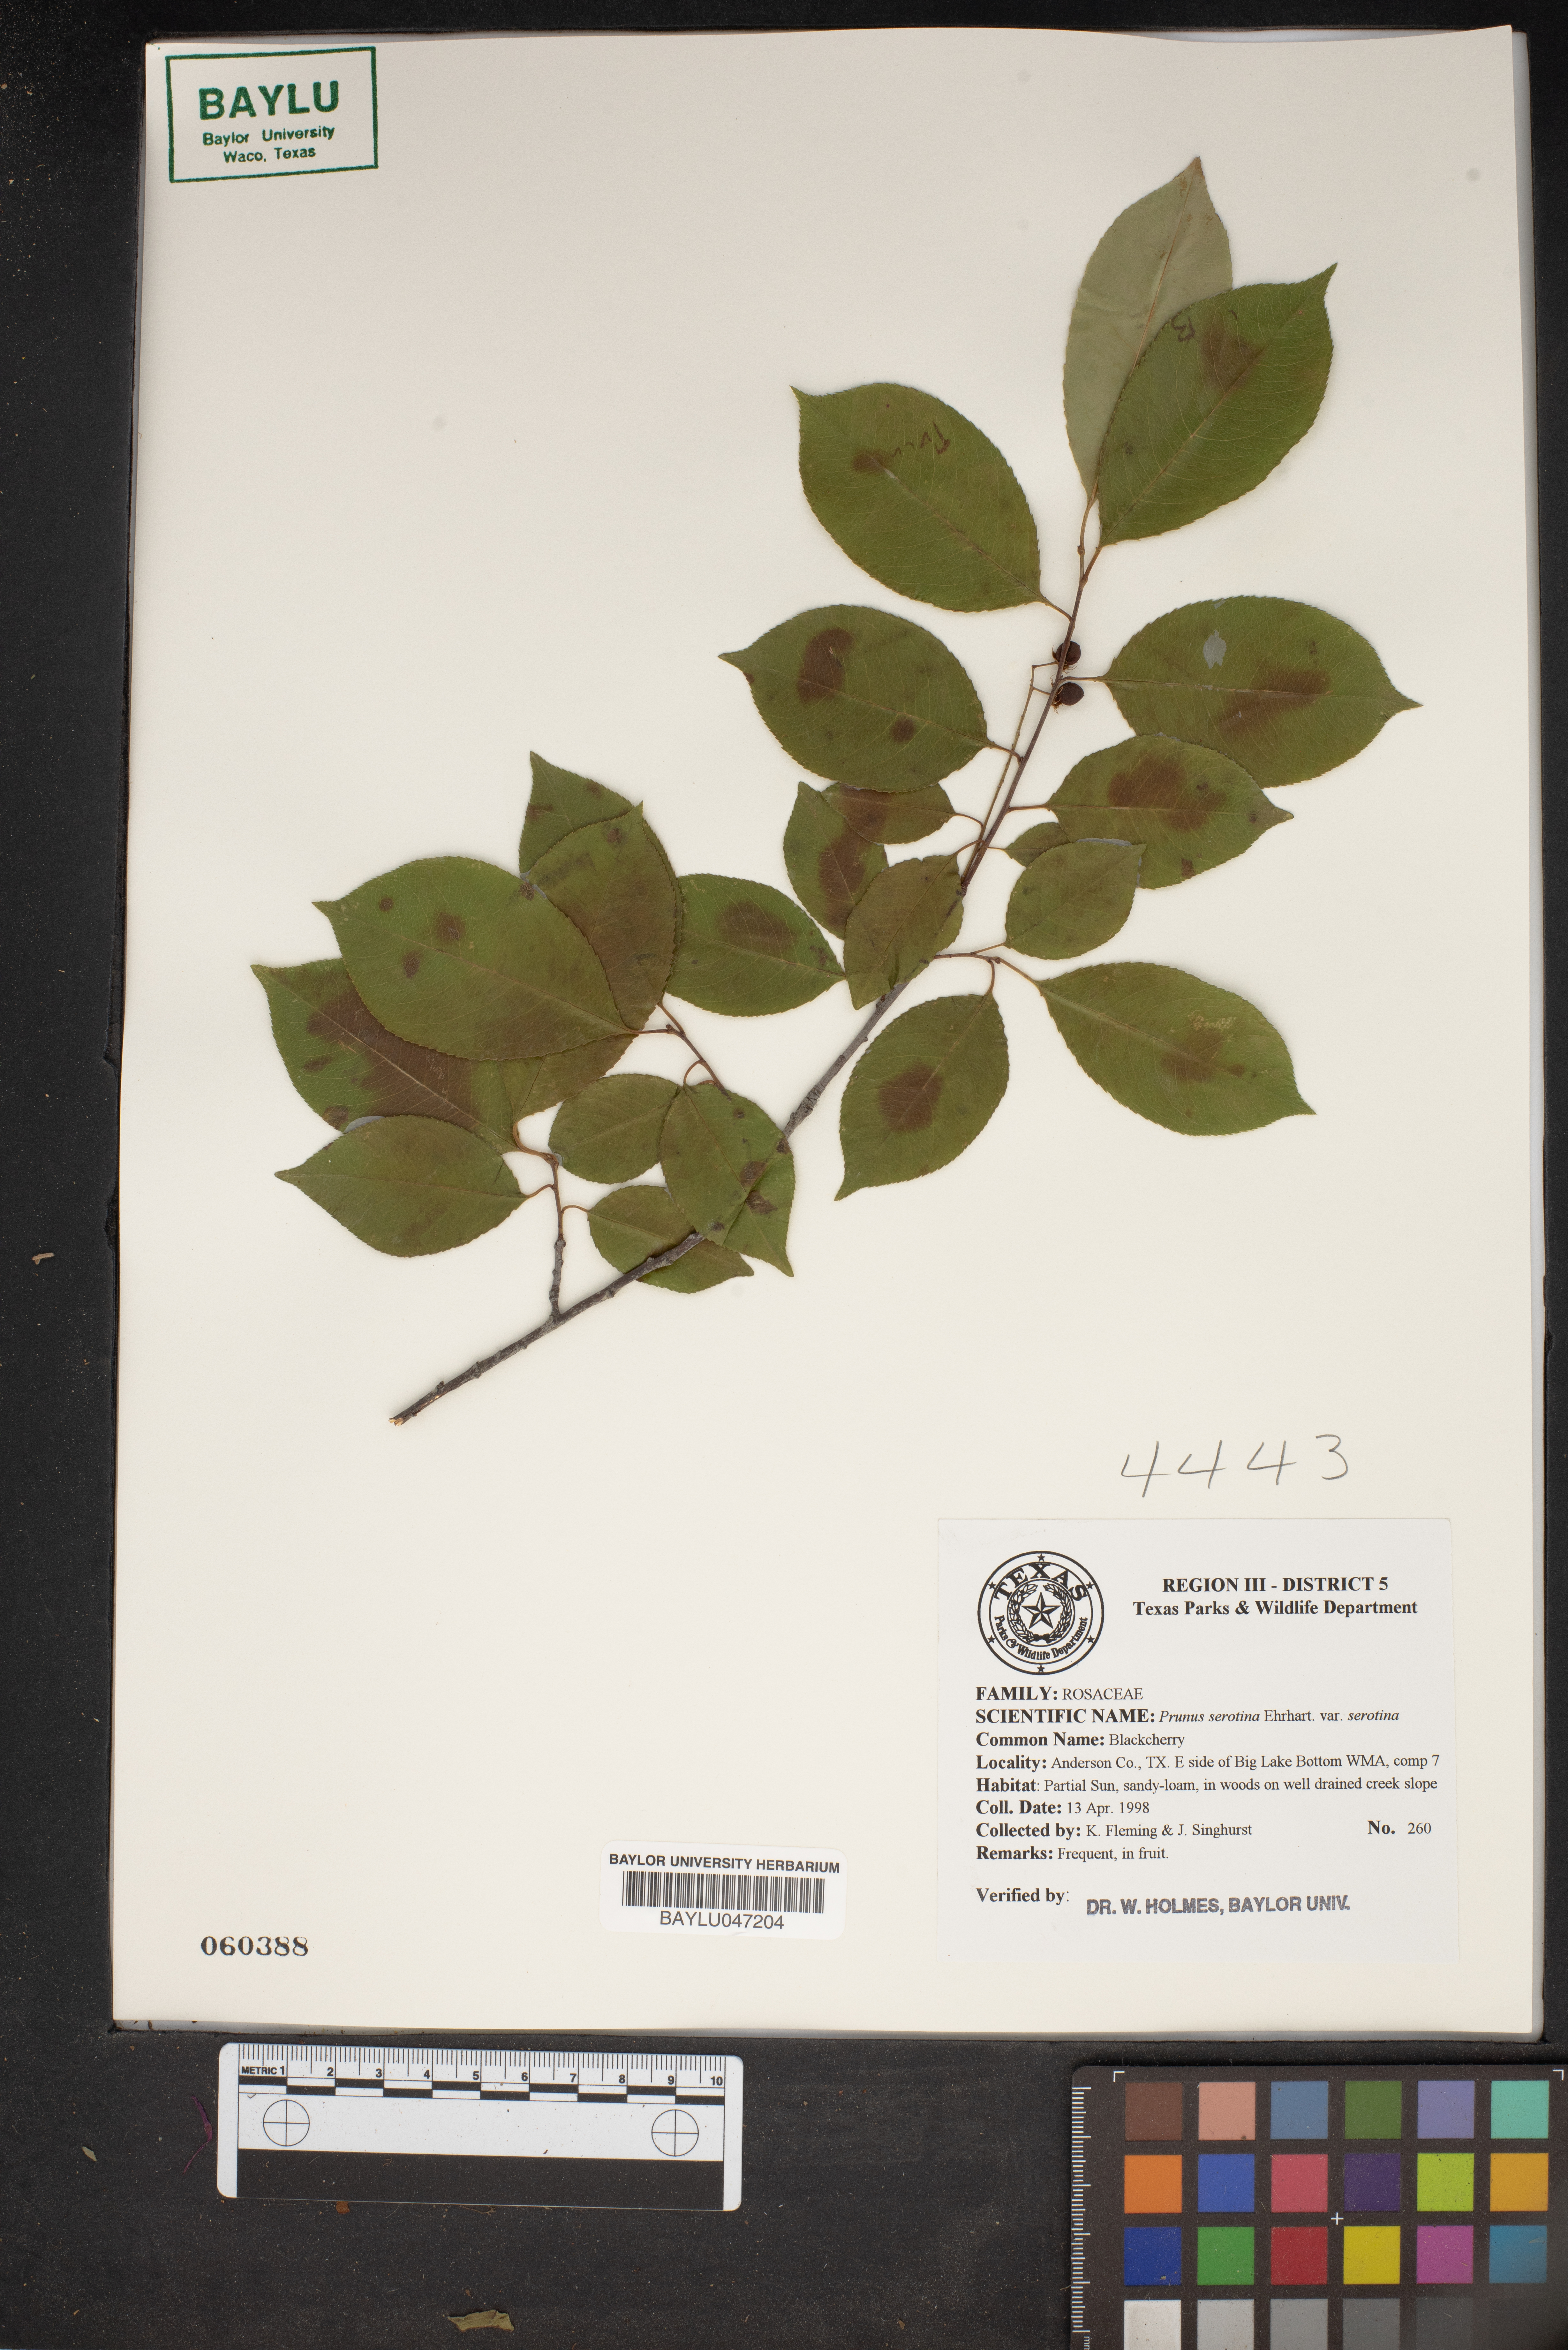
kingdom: Plantae
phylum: Tracheophyta
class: Magnoliopsida
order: Rosales
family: Rosaceae
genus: Prunus
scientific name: Prunus serotina
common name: Black cherry
